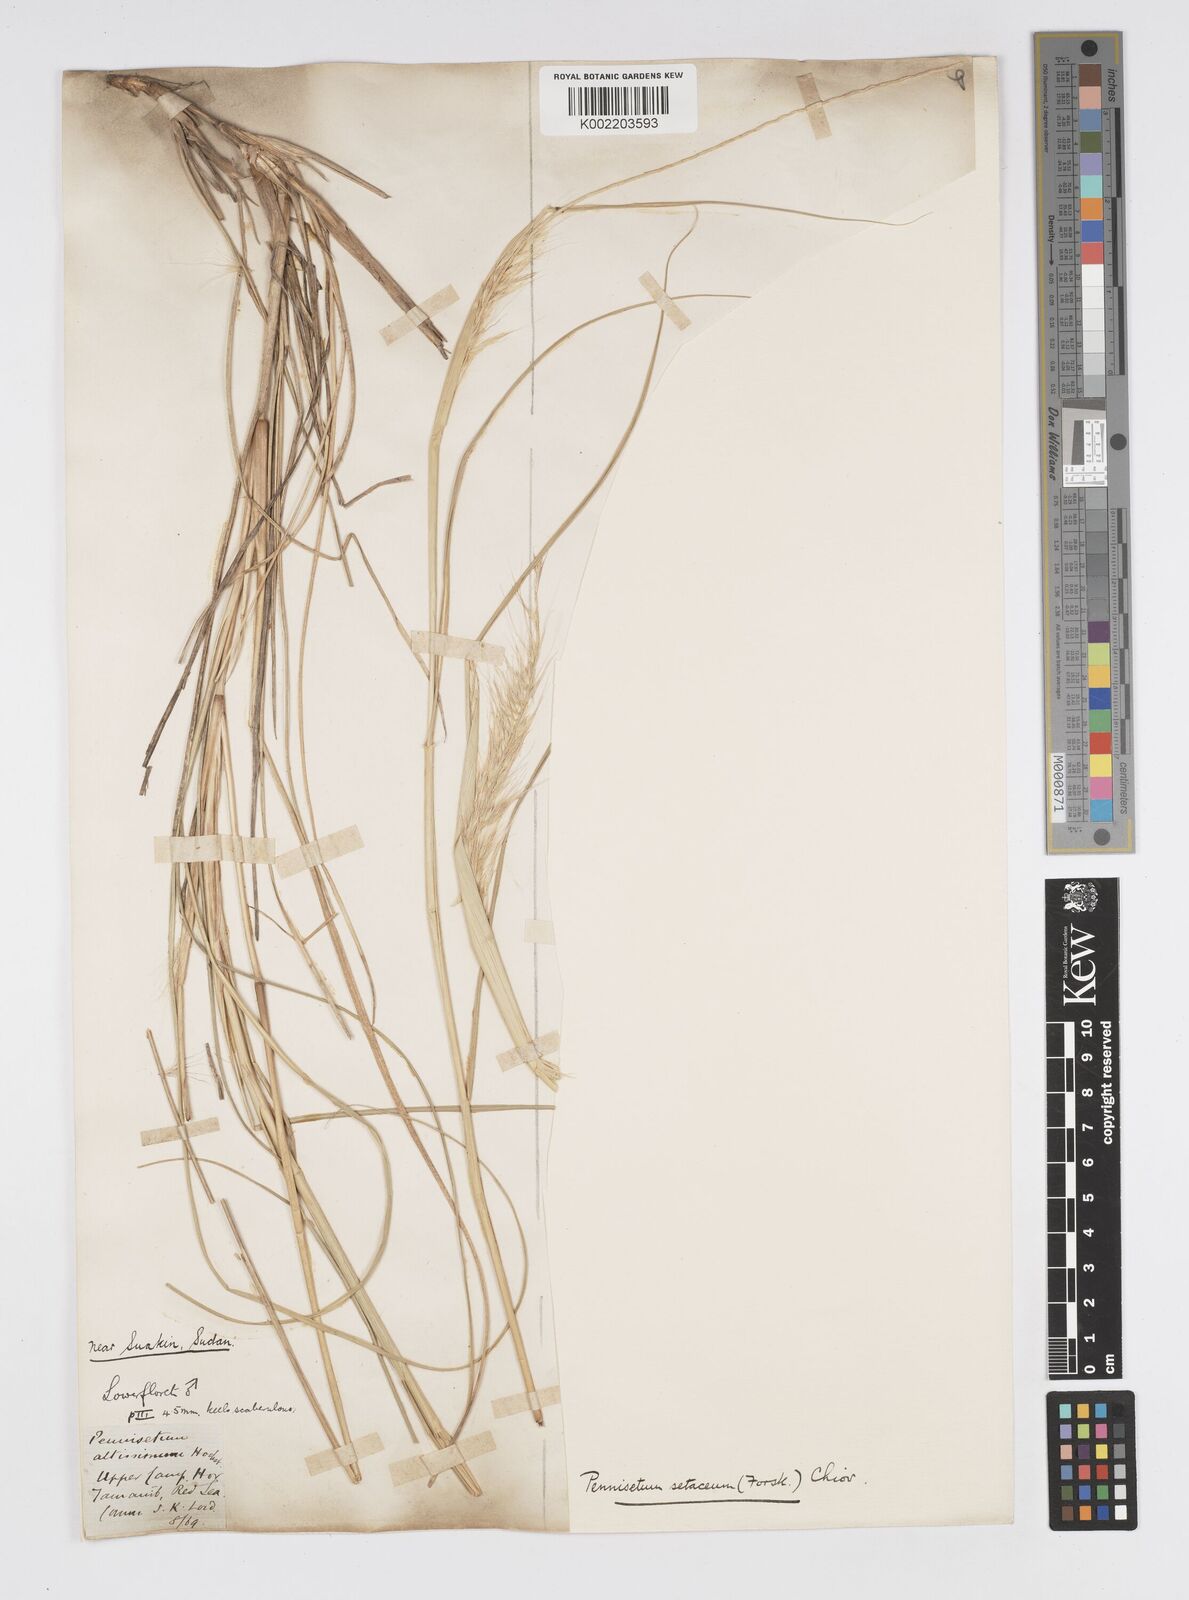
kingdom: Plantae
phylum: Tracheophyta
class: Liliopsida
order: Poales
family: Poaceae
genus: Cenchrus
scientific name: Cenchrus setaceus
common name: Crimson fountaingrass
